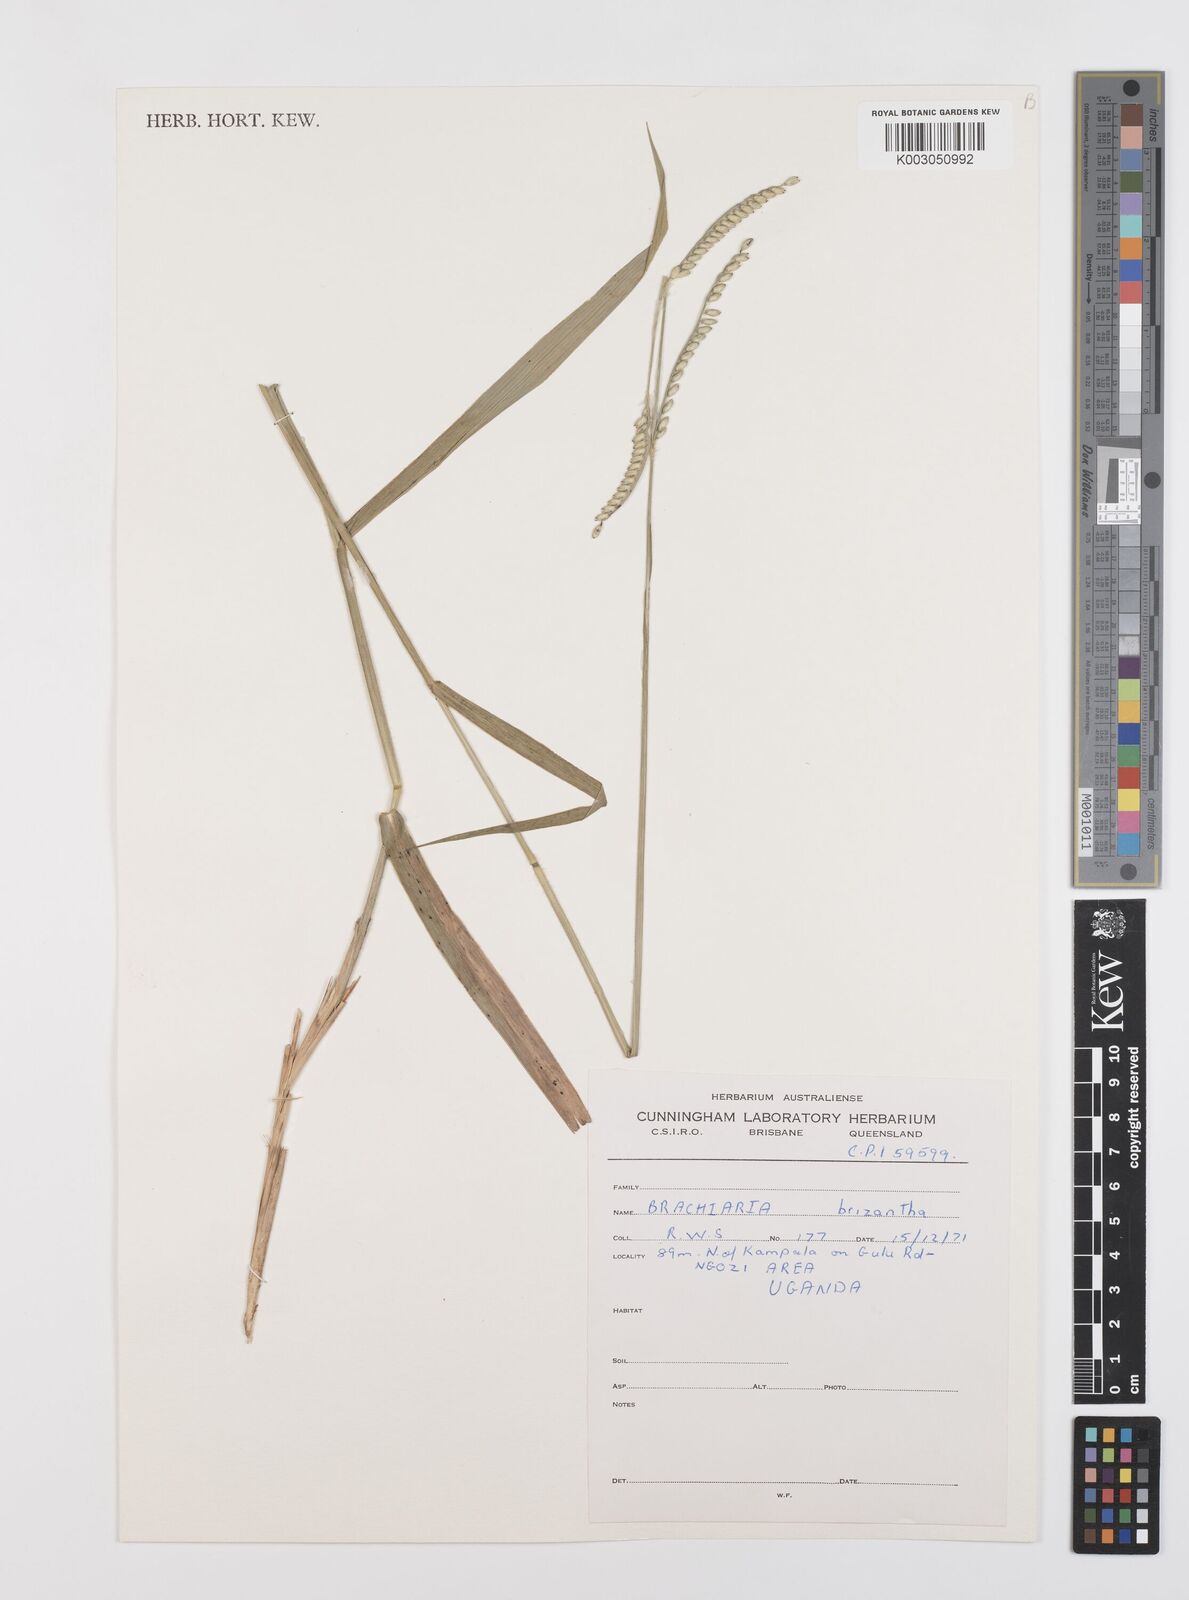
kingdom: Plantae
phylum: Tracheophyta
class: Liliopsida
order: Poales
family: Poaceae
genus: Urochloa
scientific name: Urochloa brizantha
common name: Palisade signalgrass
